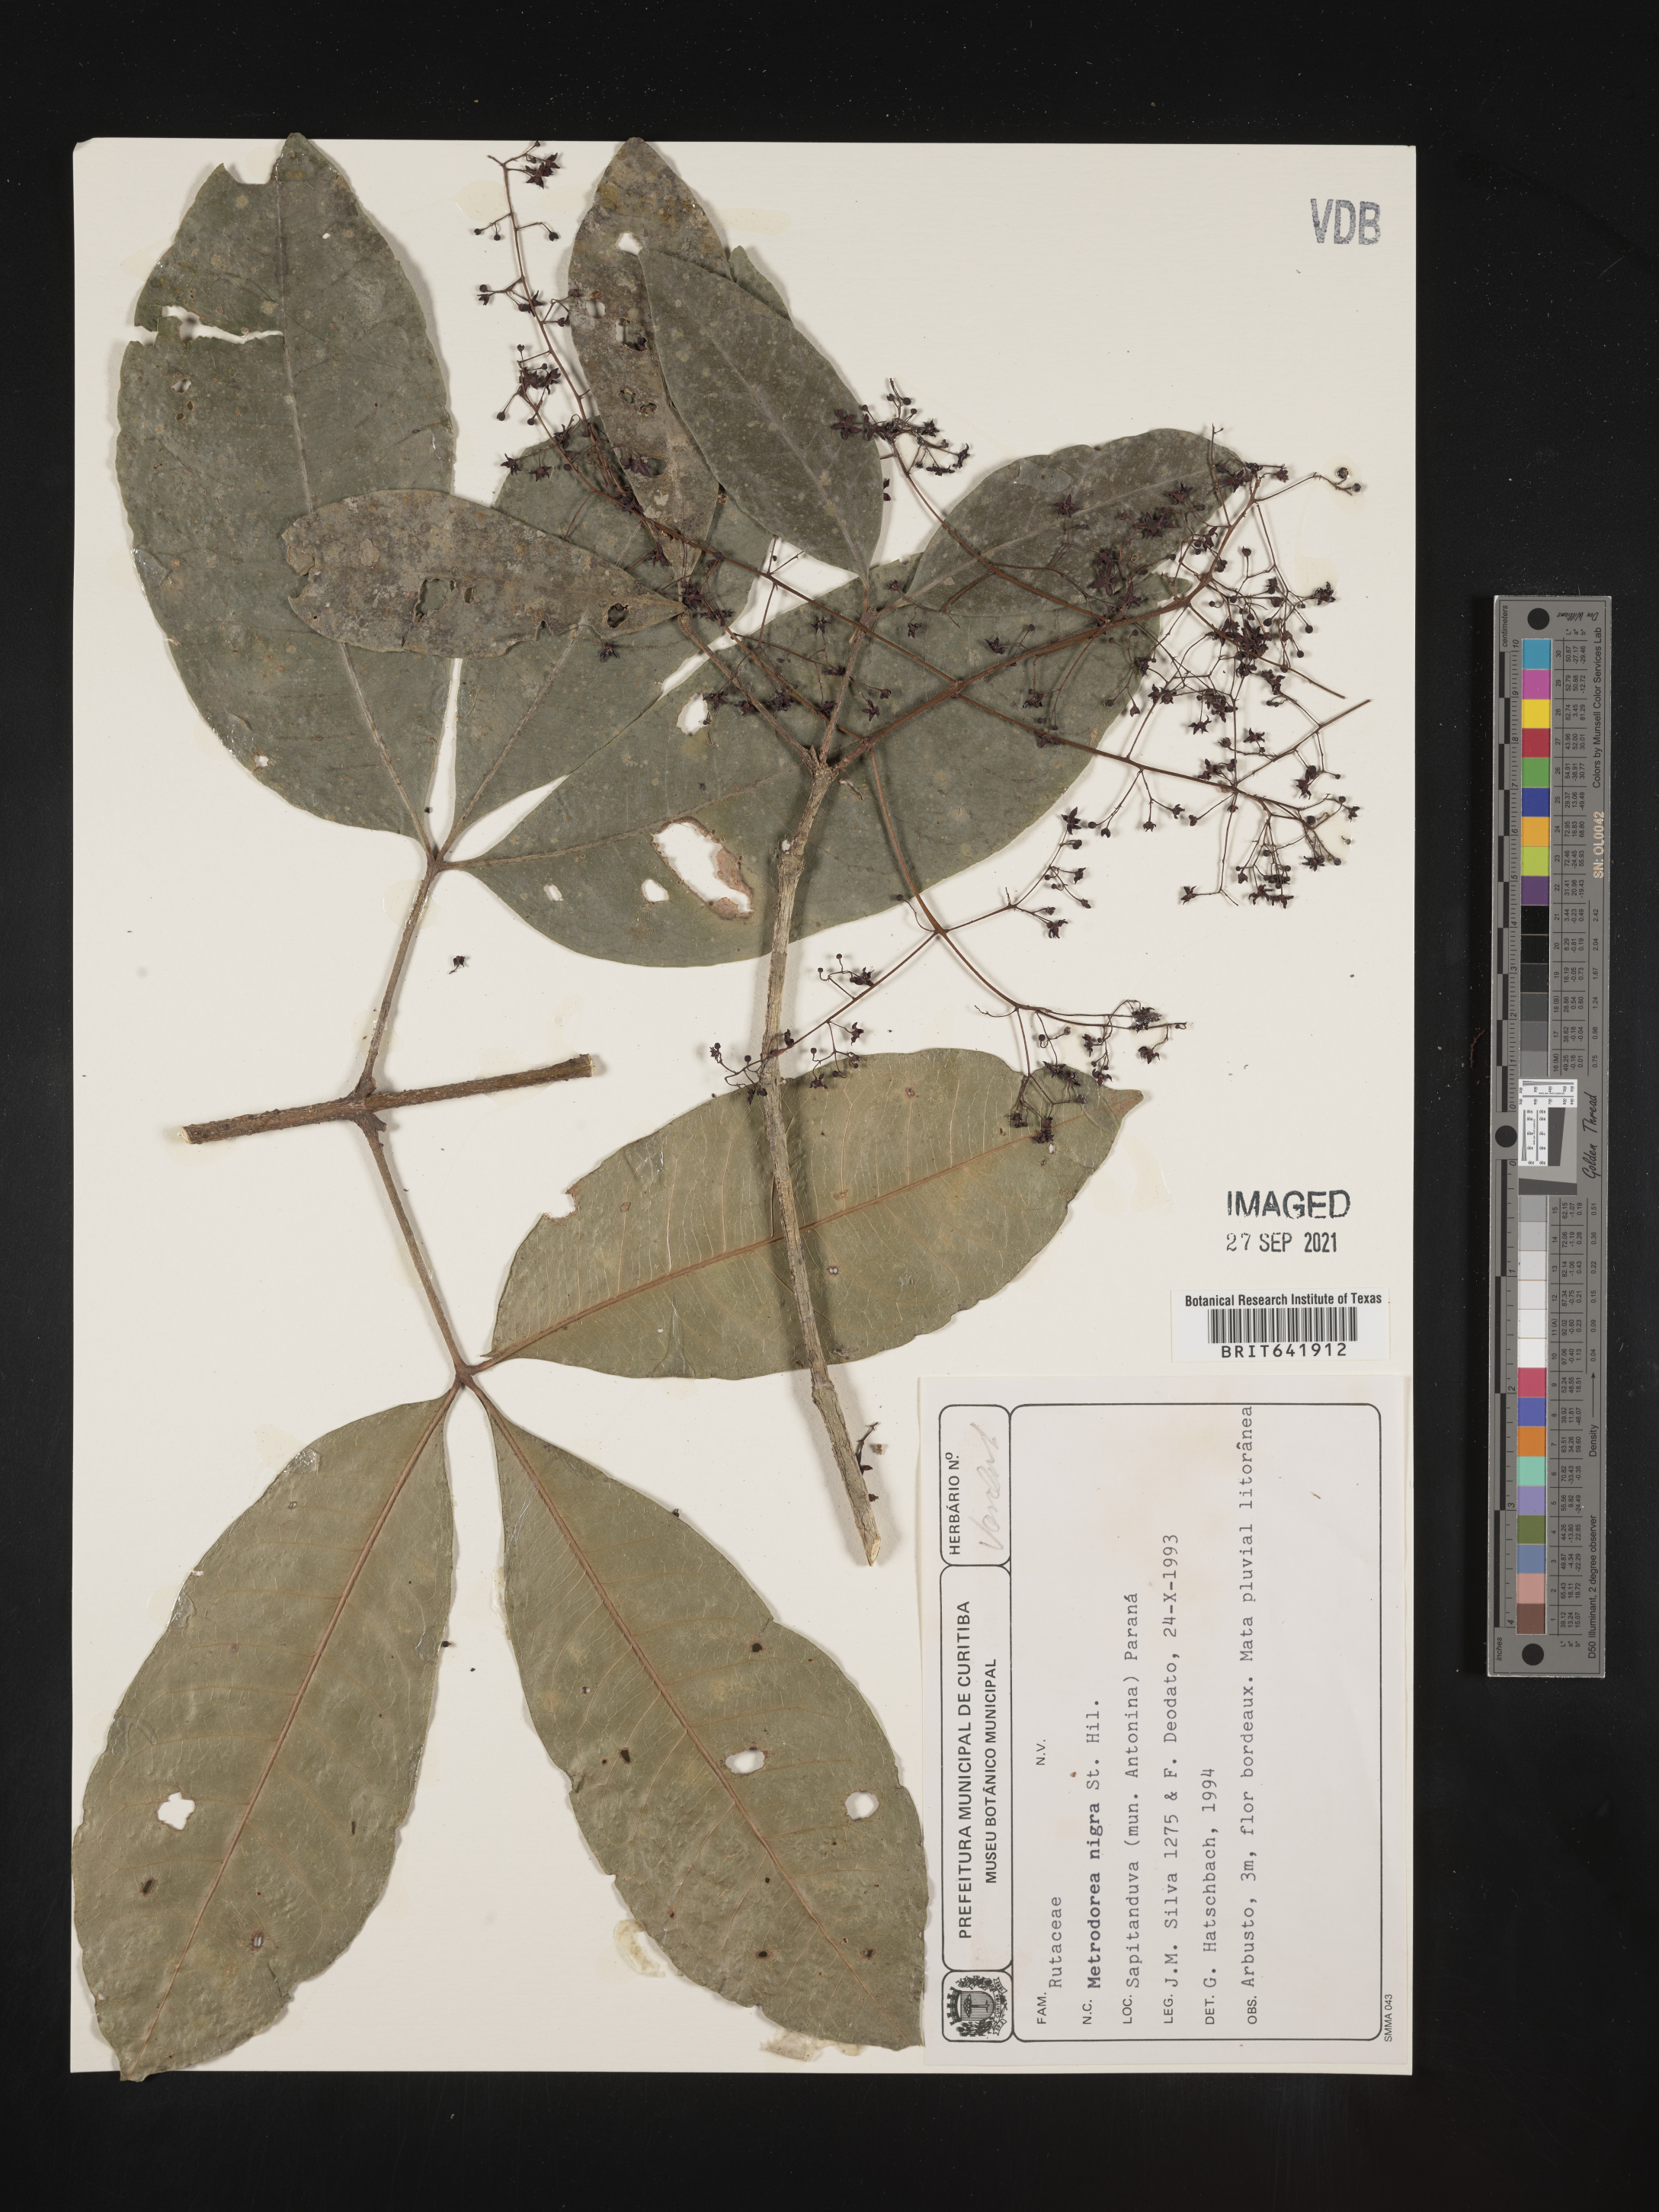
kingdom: Plantae
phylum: Tracheophyta
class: Magnoliopsida
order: Sapindales
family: Rutaceae
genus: Metrodorea
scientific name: Metrodorea
